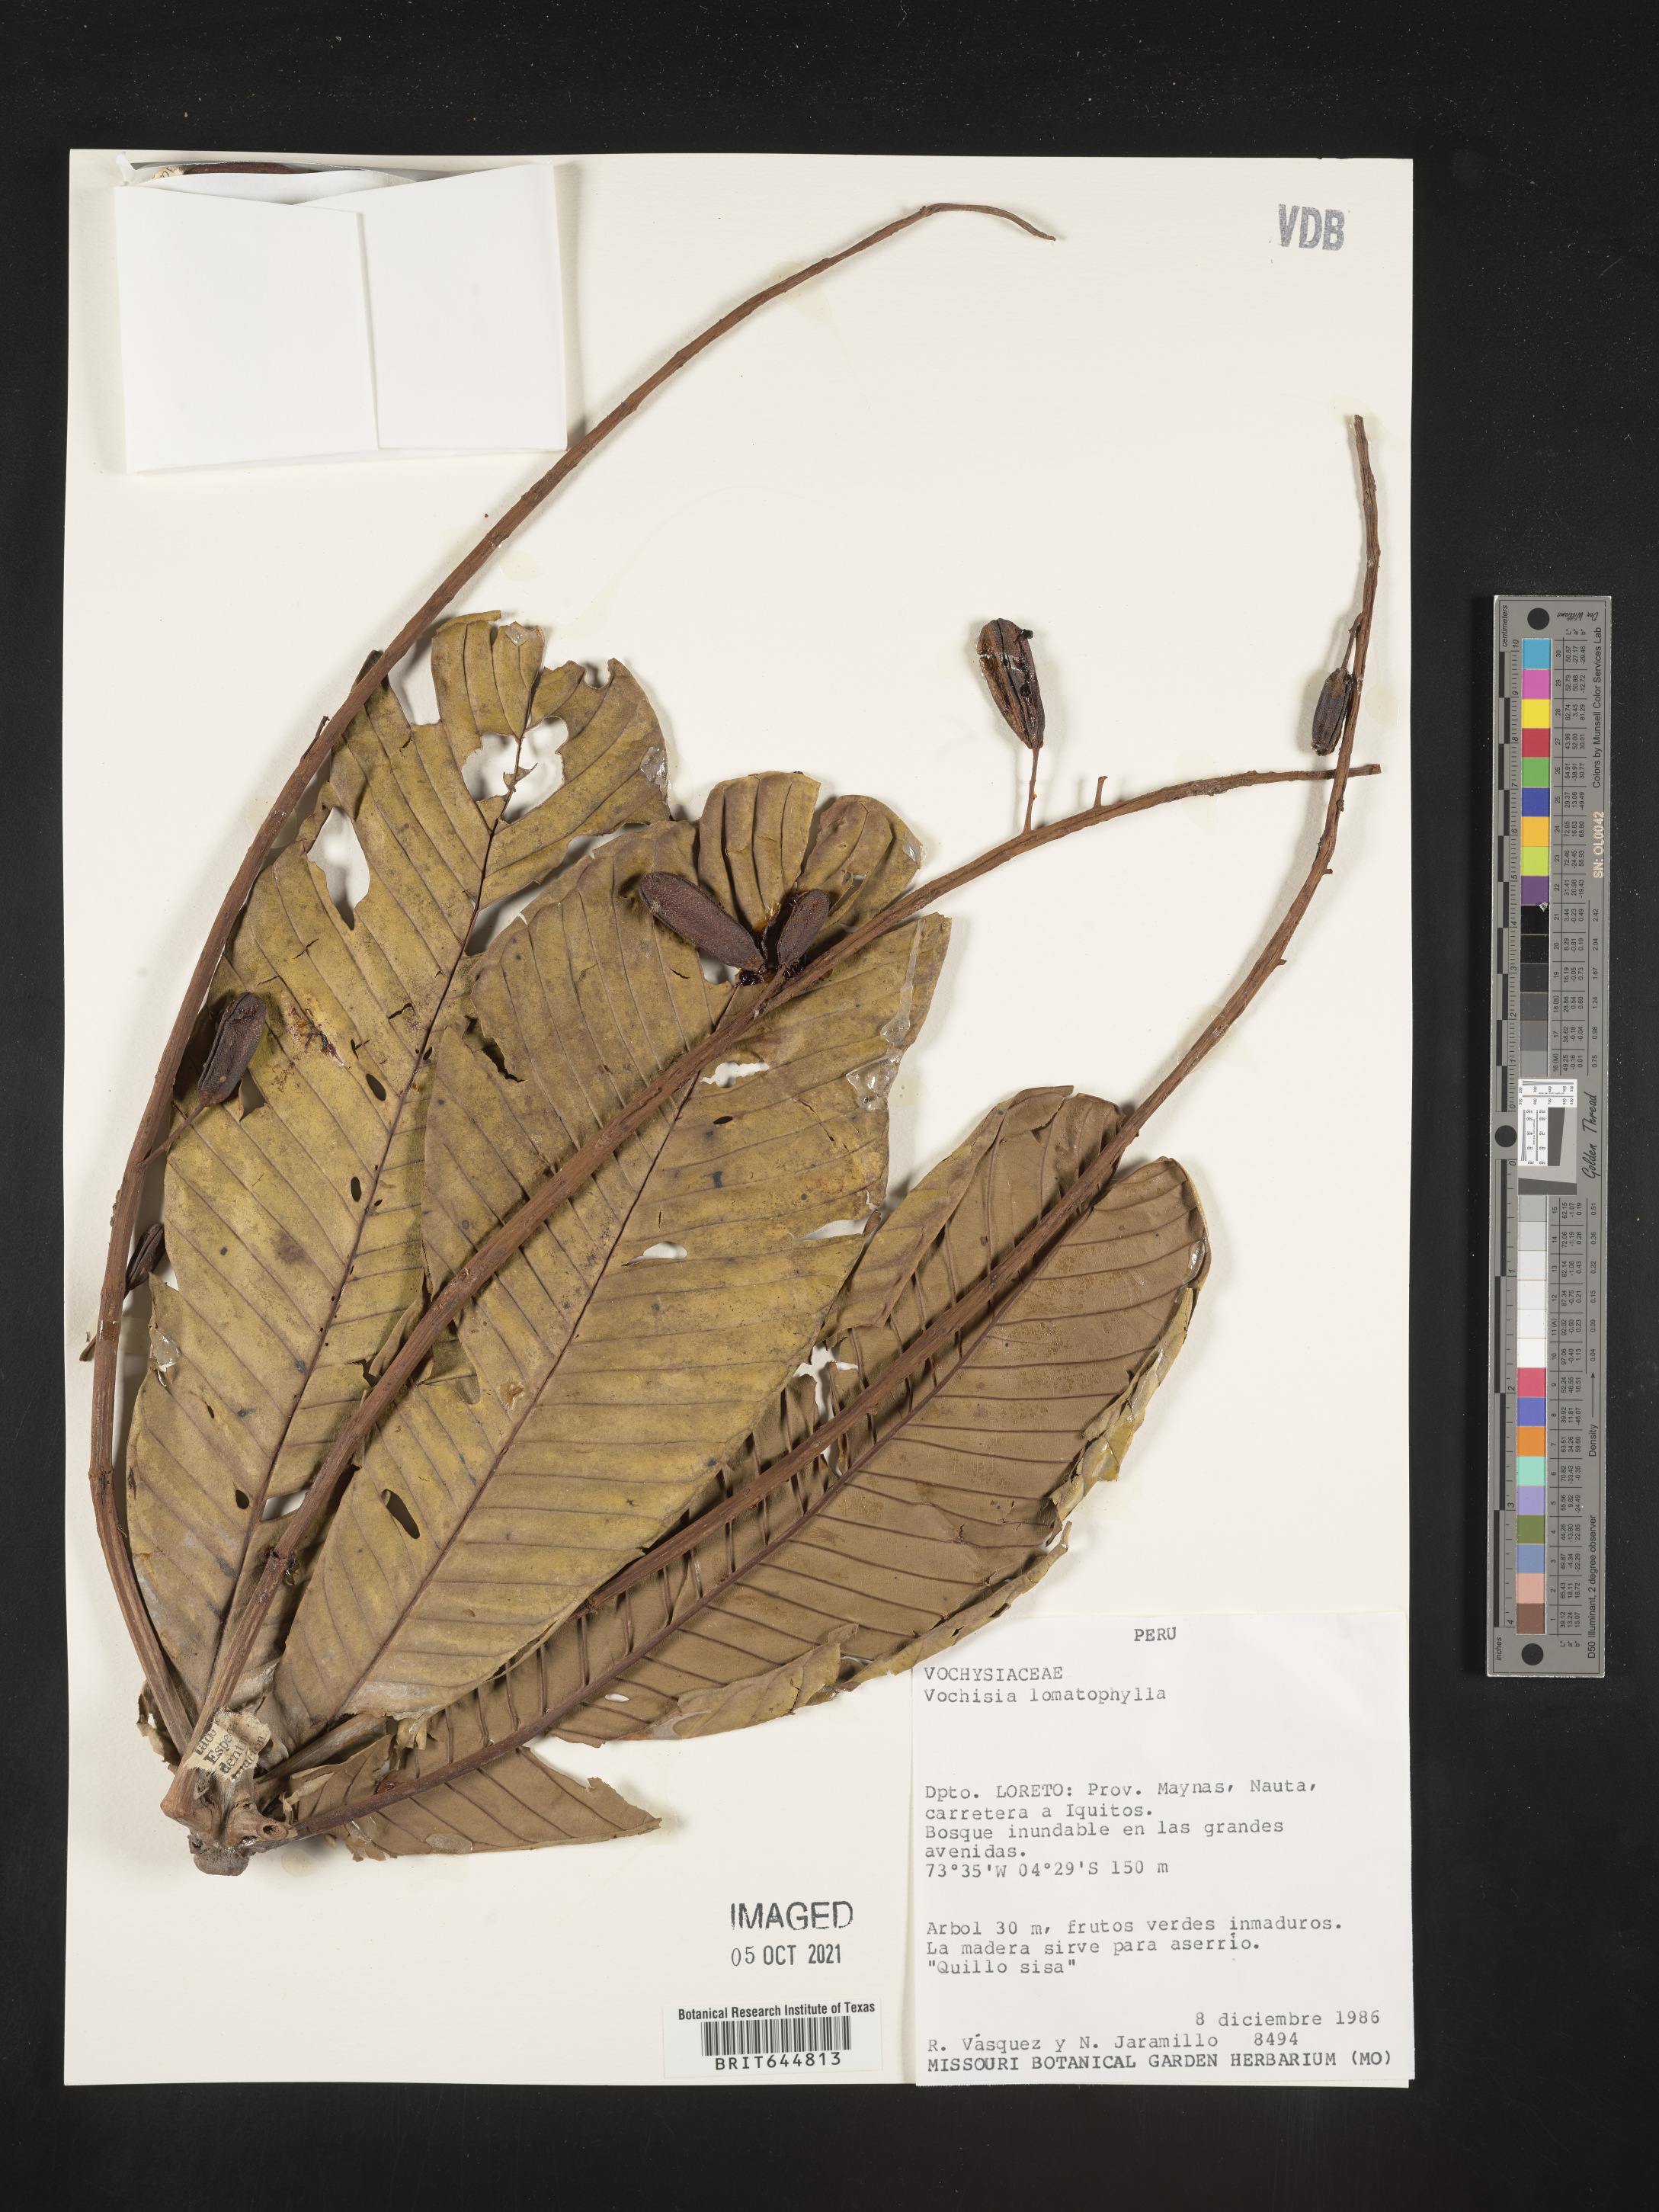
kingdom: Plantae
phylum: Tracheophyta
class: Magnoliopsida
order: Myrtales
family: Vochysiaceae
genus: Vochysia
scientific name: Vochysia
